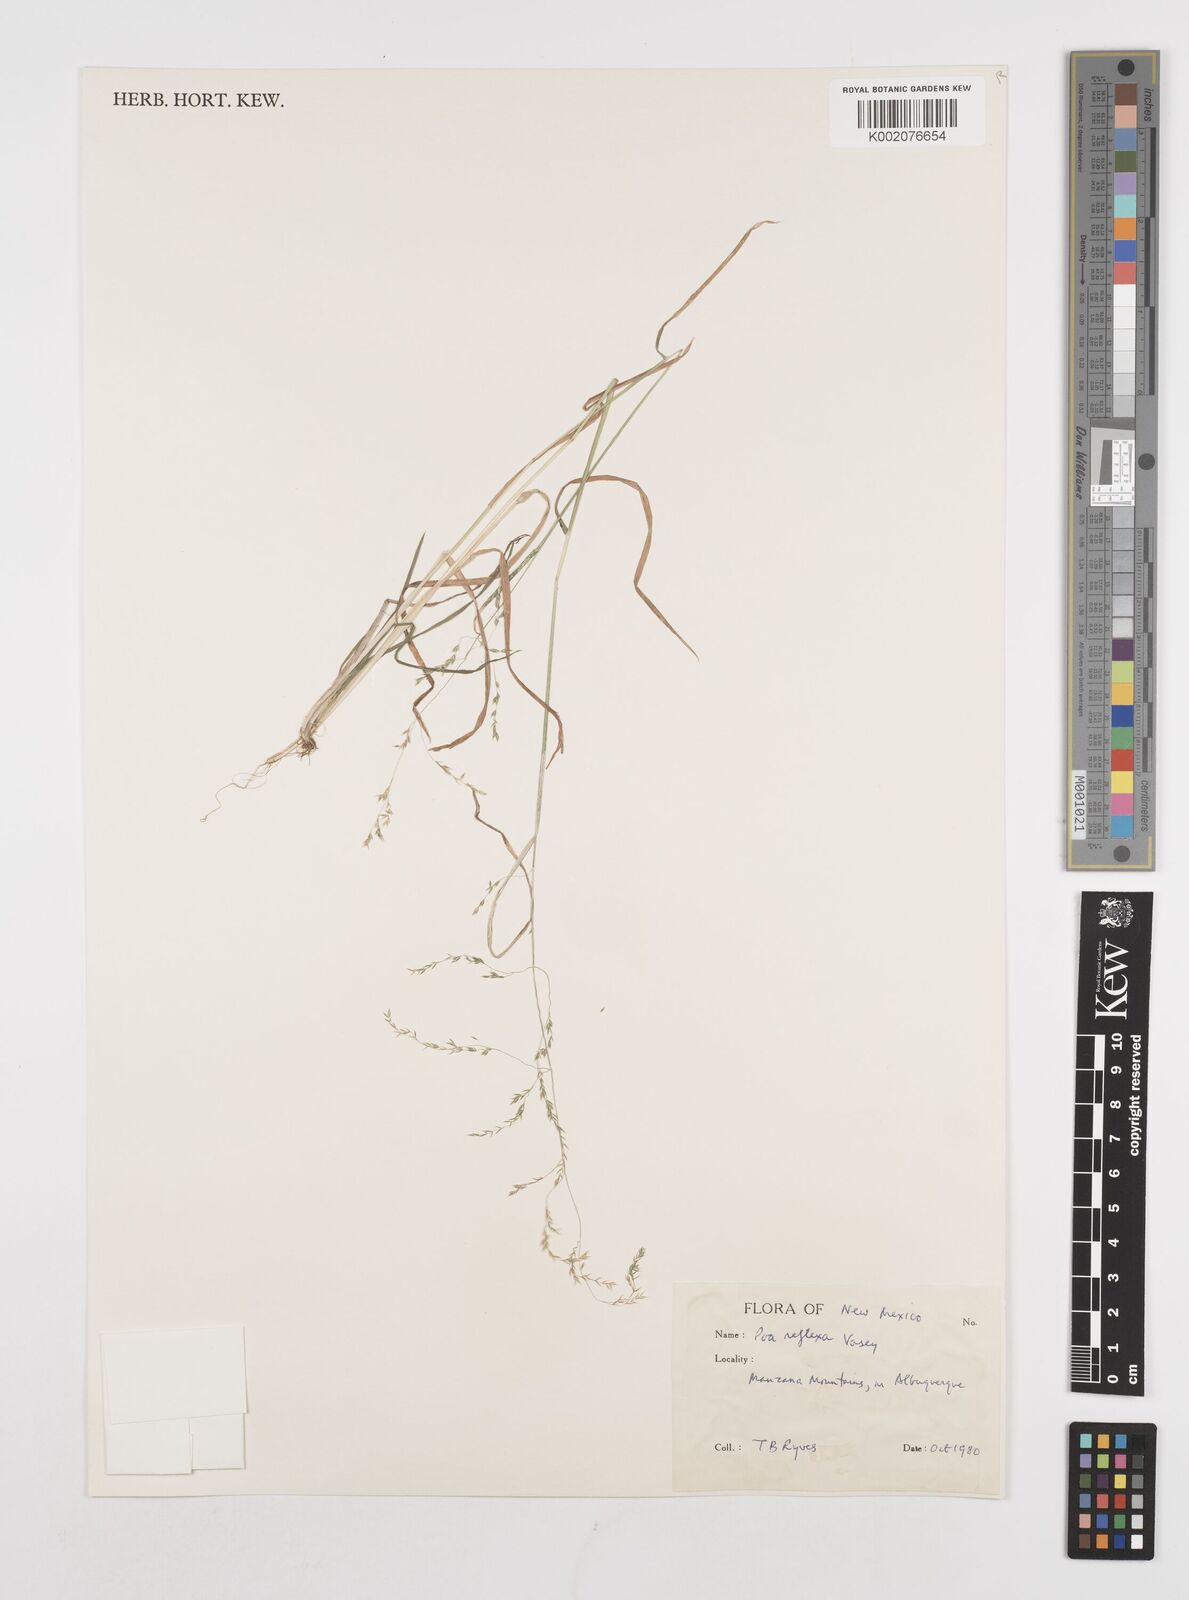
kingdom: Plantae
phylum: Tracheophyta
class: Liliopsida
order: Poales
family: Poaceae
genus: Poa
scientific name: Poa reflexa
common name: Nodding bluegrass
